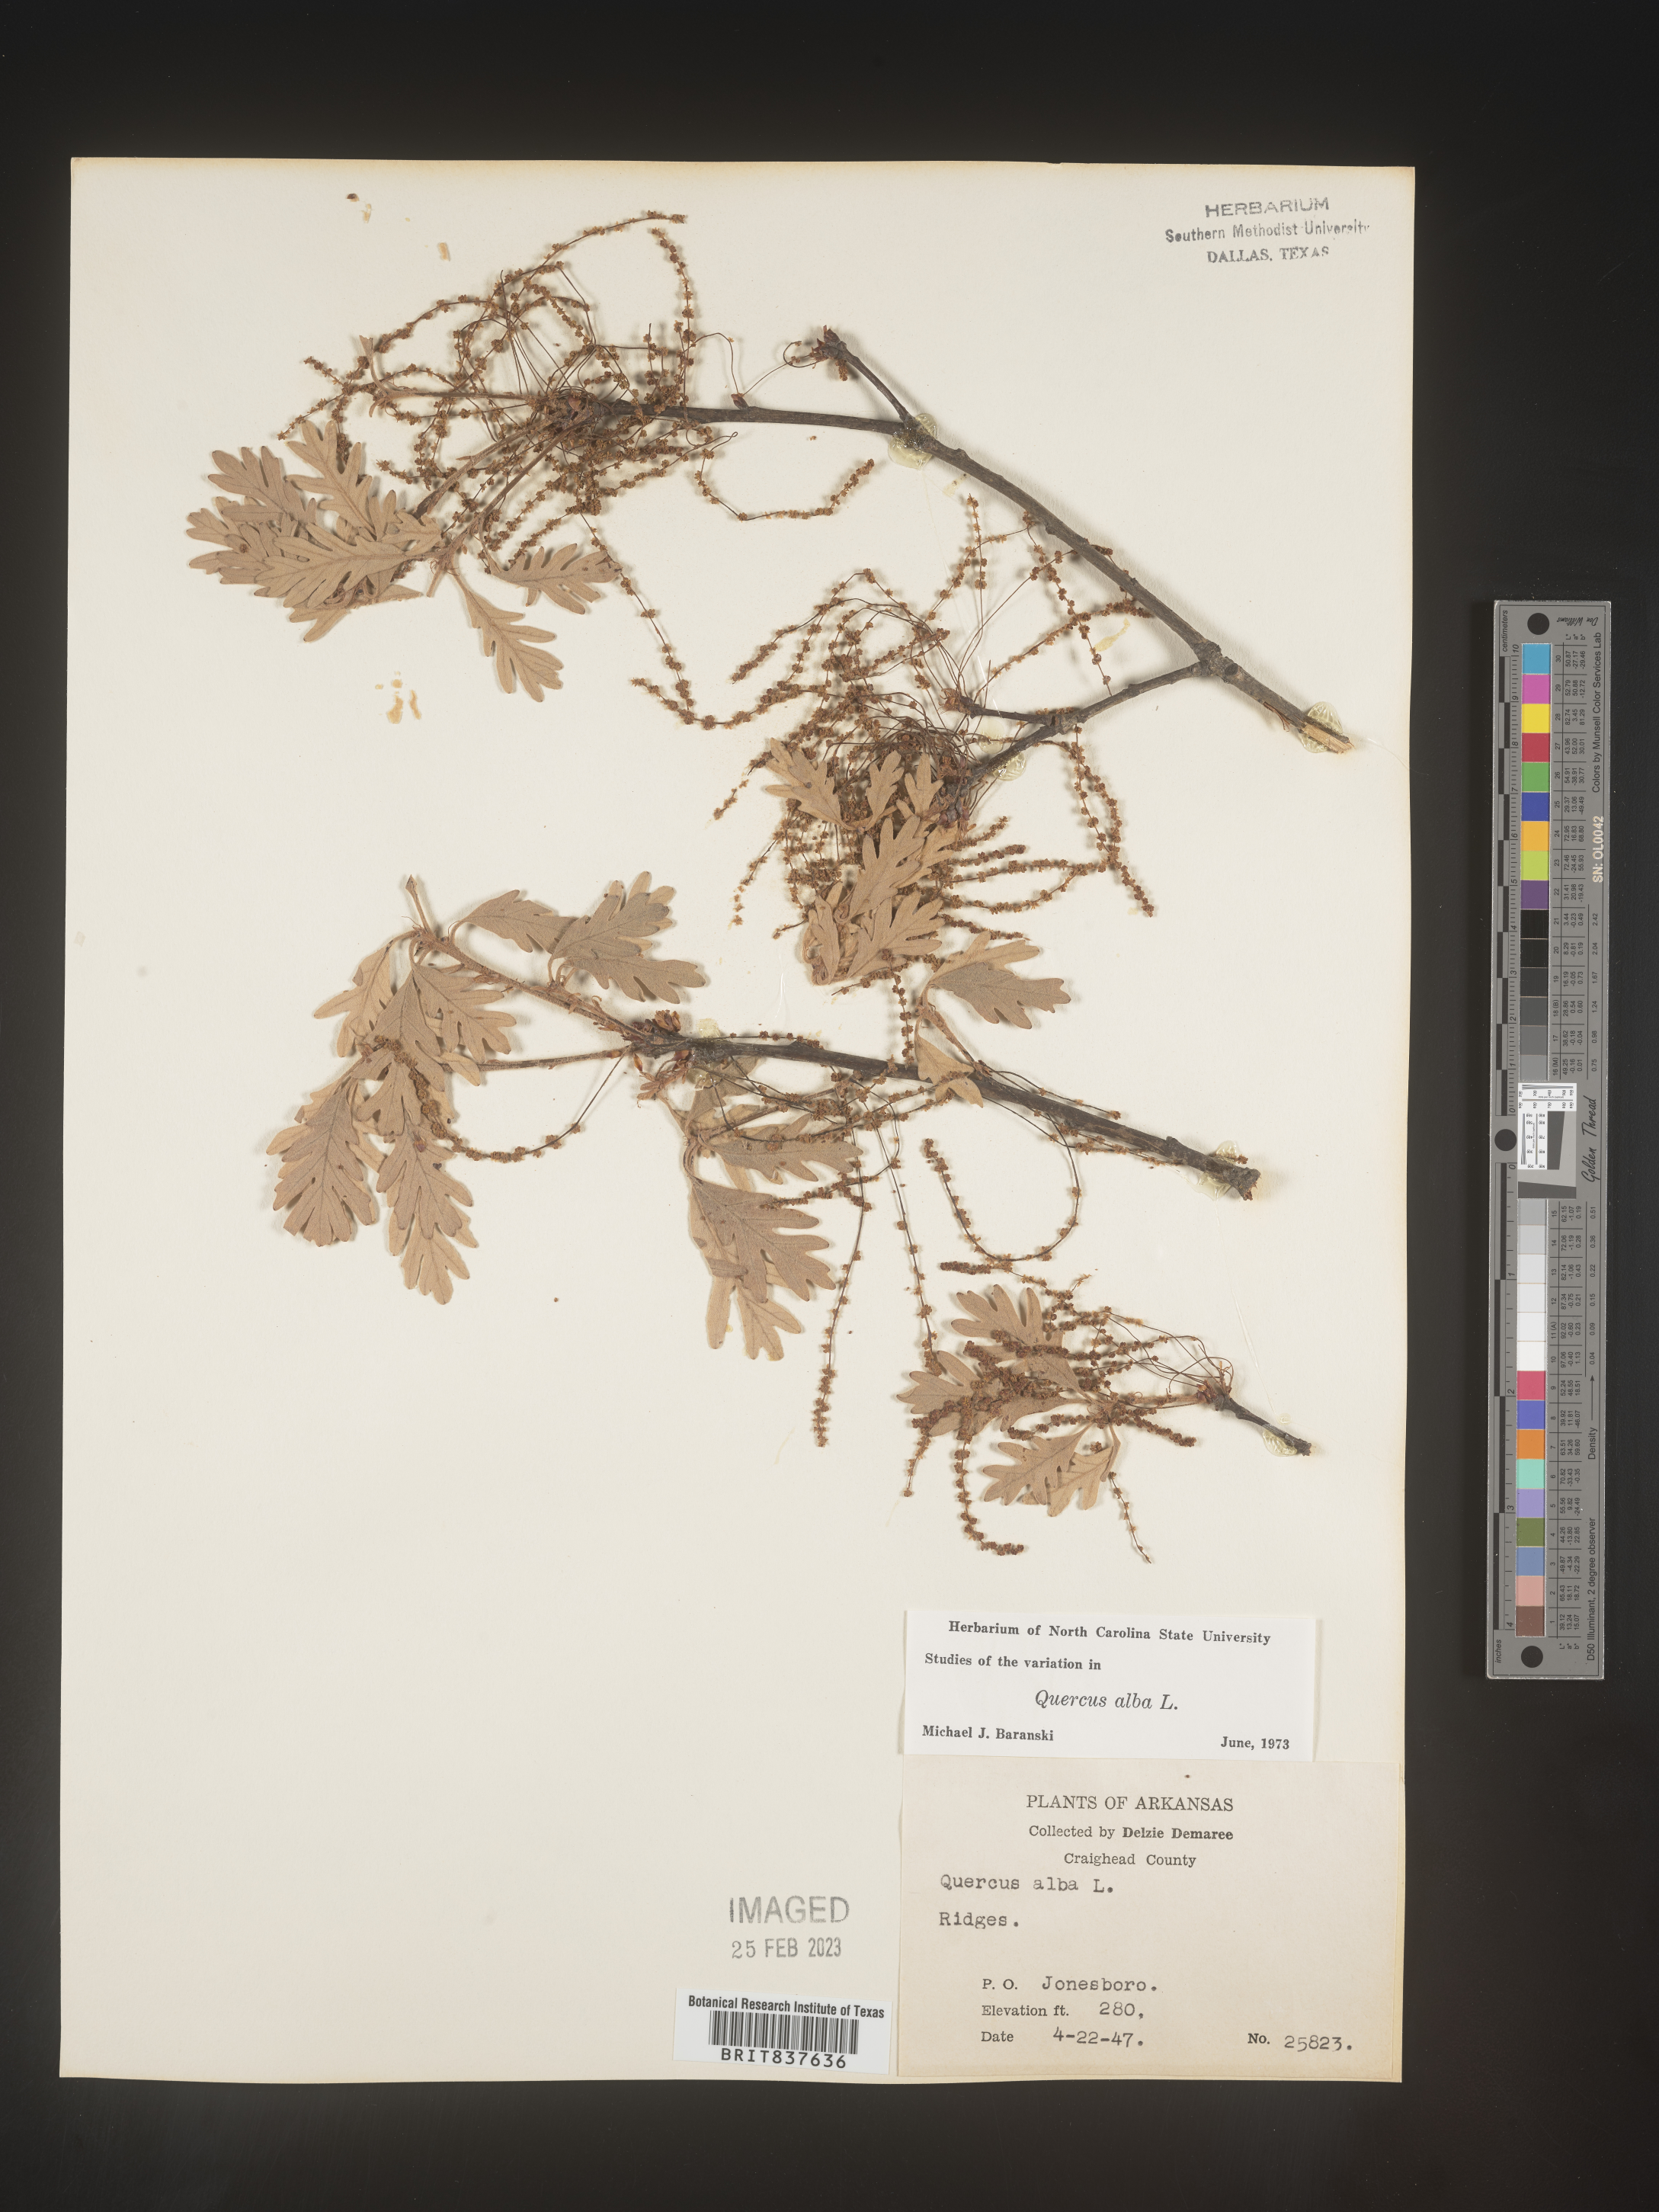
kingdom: Plantae
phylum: Tracheophyta
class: Magnoliopsida
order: Fagales
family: Fagaceae
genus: Quercus
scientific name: Quercus alba
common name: White oak
